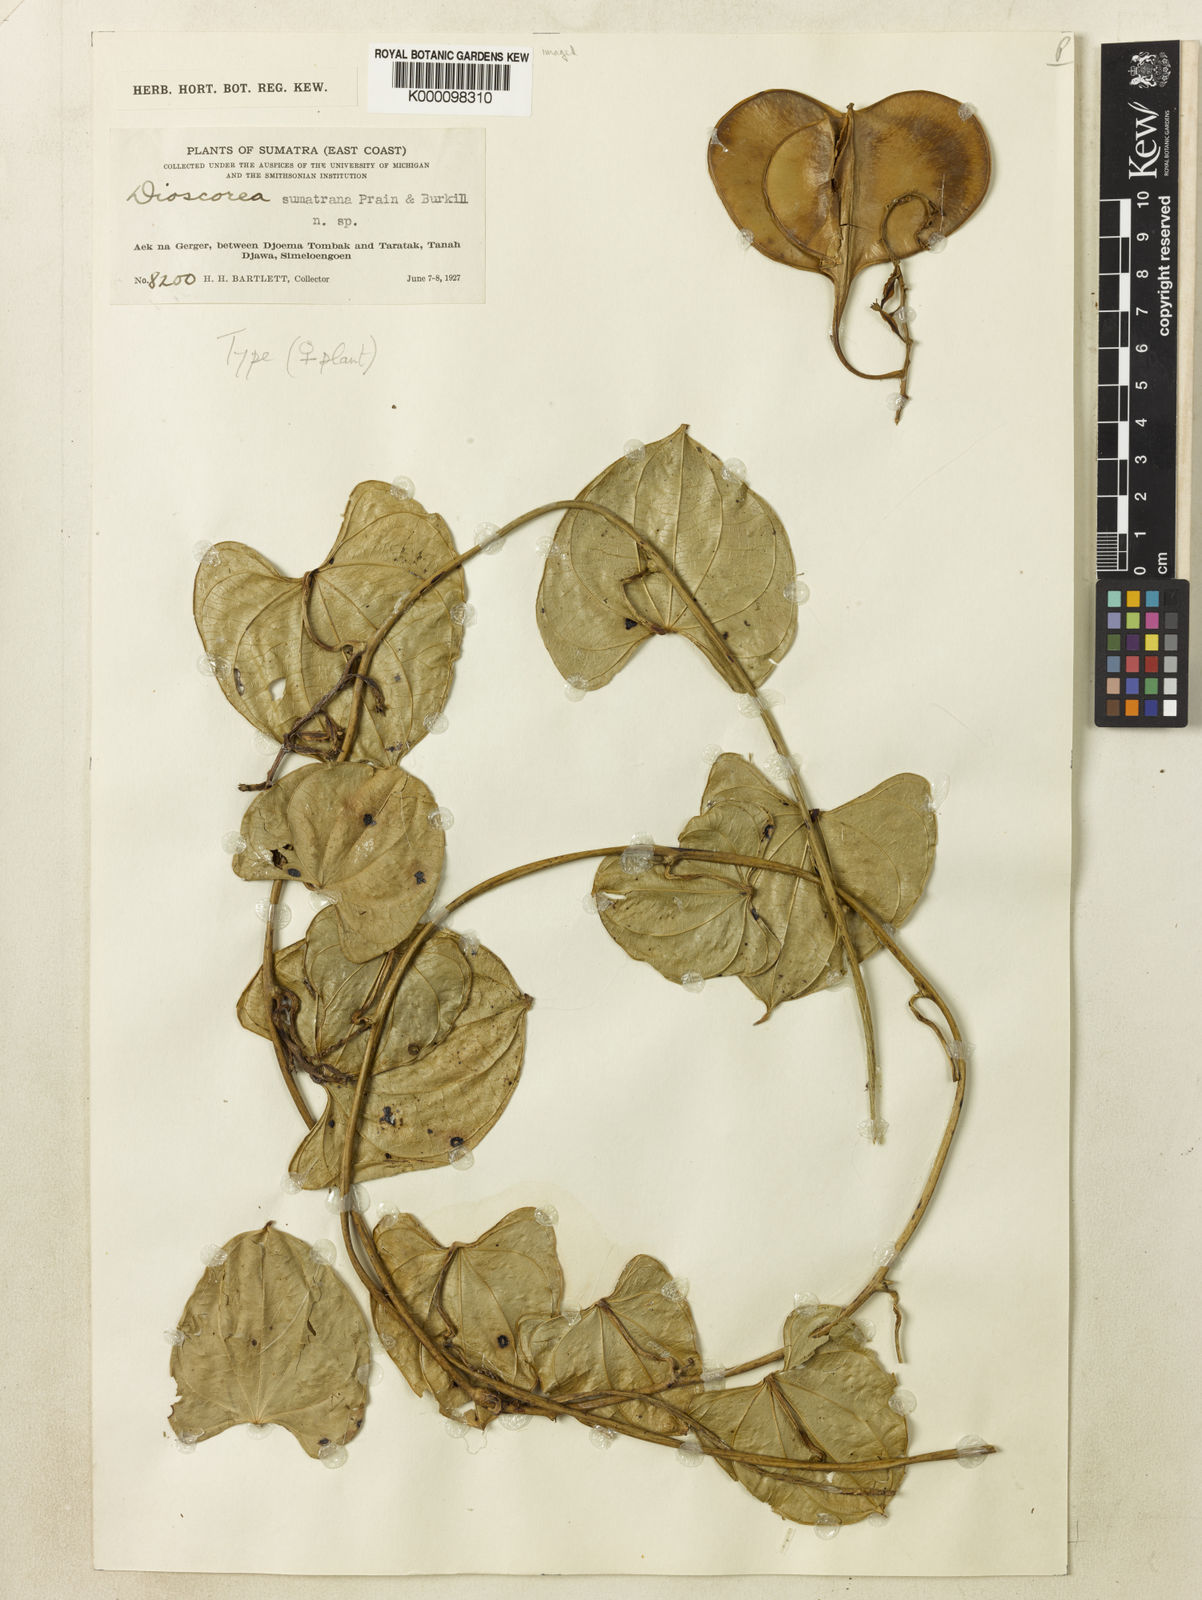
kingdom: Plantae
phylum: Tracheophyta
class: Liliopsida
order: Dioscoreales
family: Dioscoreaceae
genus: Dioscorea
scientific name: Dioscorea sumatrana
